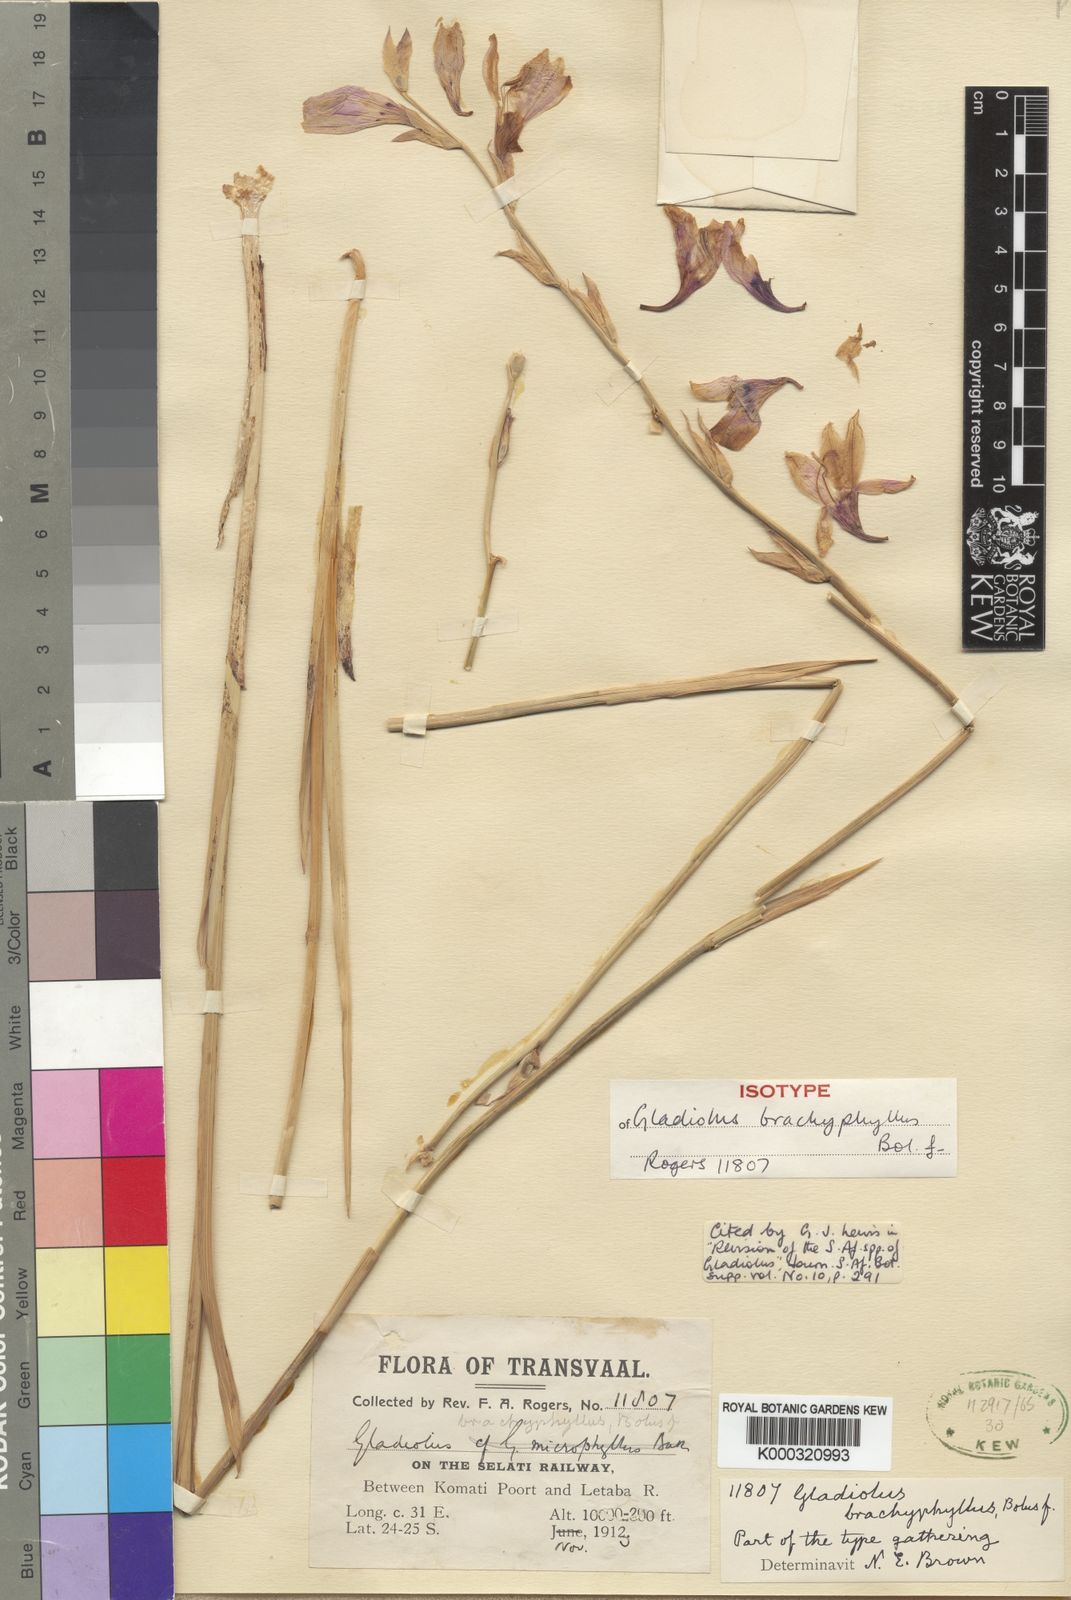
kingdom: Plantae
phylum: Tracheophyta
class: Liliopsida
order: Asparagales
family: Iridaceae
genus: Gladiolus
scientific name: Gladiolus brachyphyllus
